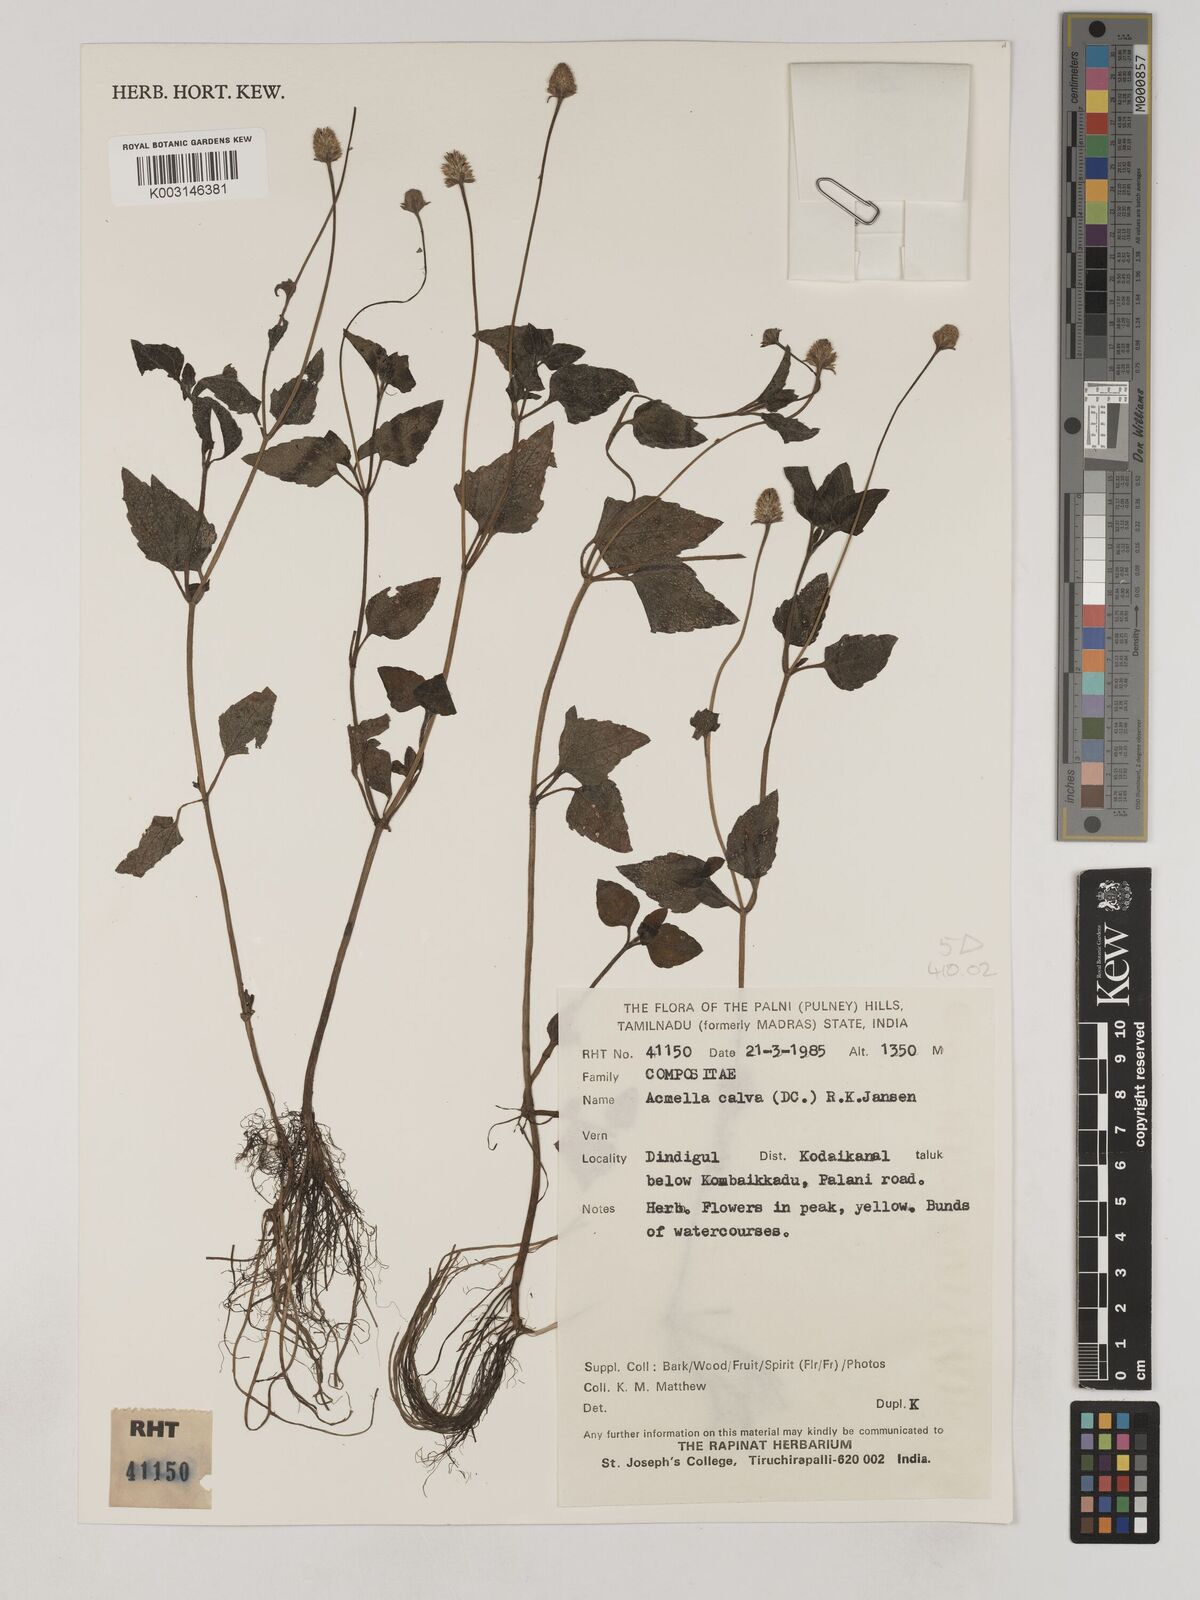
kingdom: Plantae
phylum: Tracheophyta
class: Magnoliopsida
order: Asterales
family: Asteraceae
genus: Acmella
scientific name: Acmella calva
